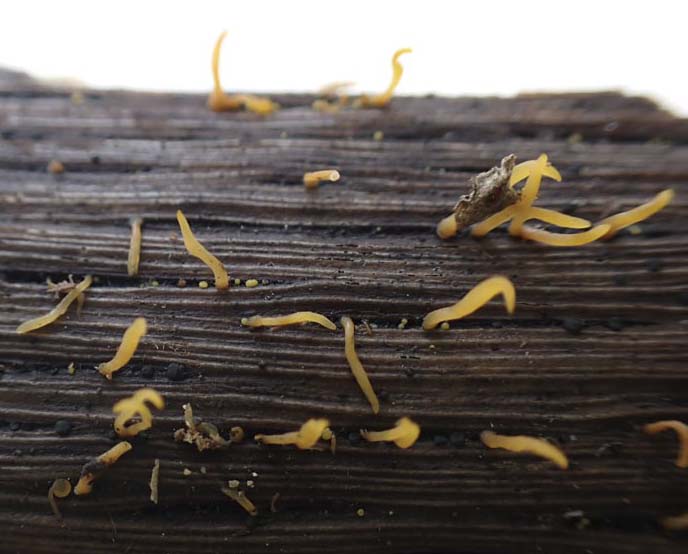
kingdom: Fungi
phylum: Basidiomycota
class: Dacrymycetes
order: Dacrymycetales
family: Dacrymycetaceae
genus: Calocera
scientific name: Calocera cornea
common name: liden guldgaffel
